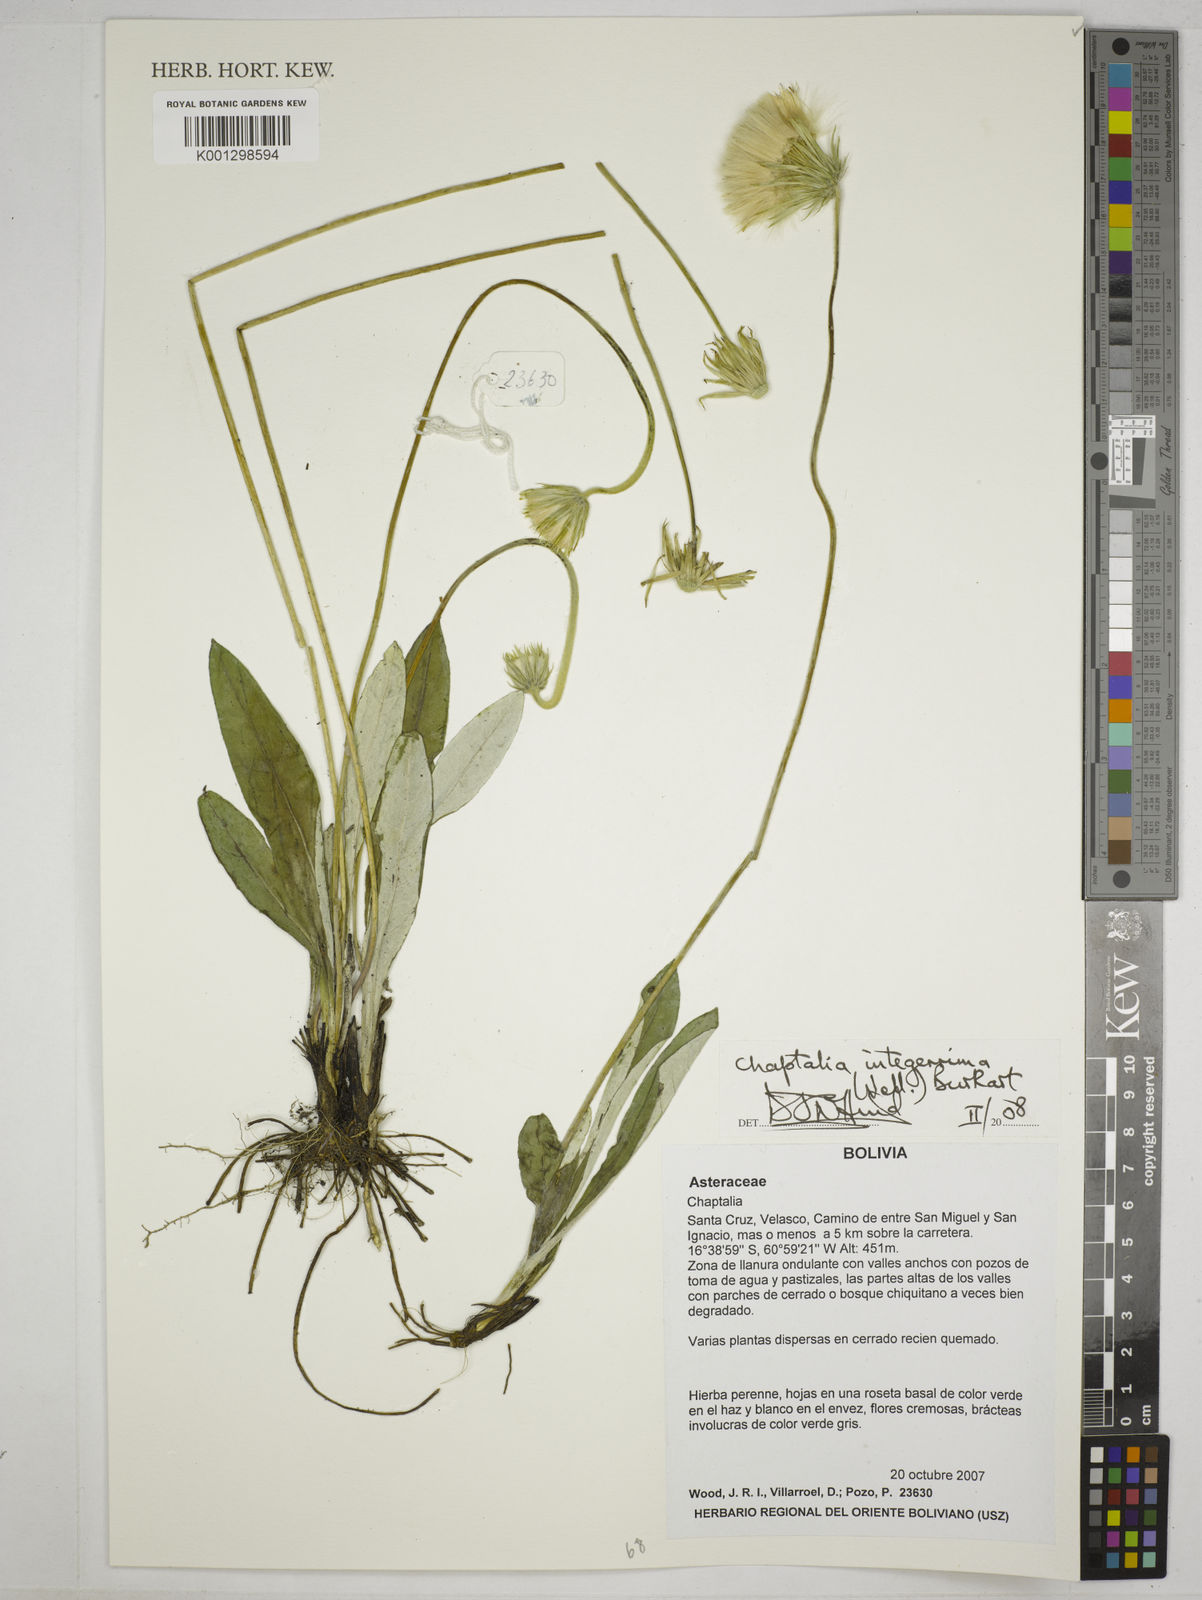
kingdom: Plantae
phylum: Tracheophyta
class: Magnoliopsida
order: Asterales
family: Asteraceae
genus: Chaptalia
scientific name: Chaptalia integerrima
